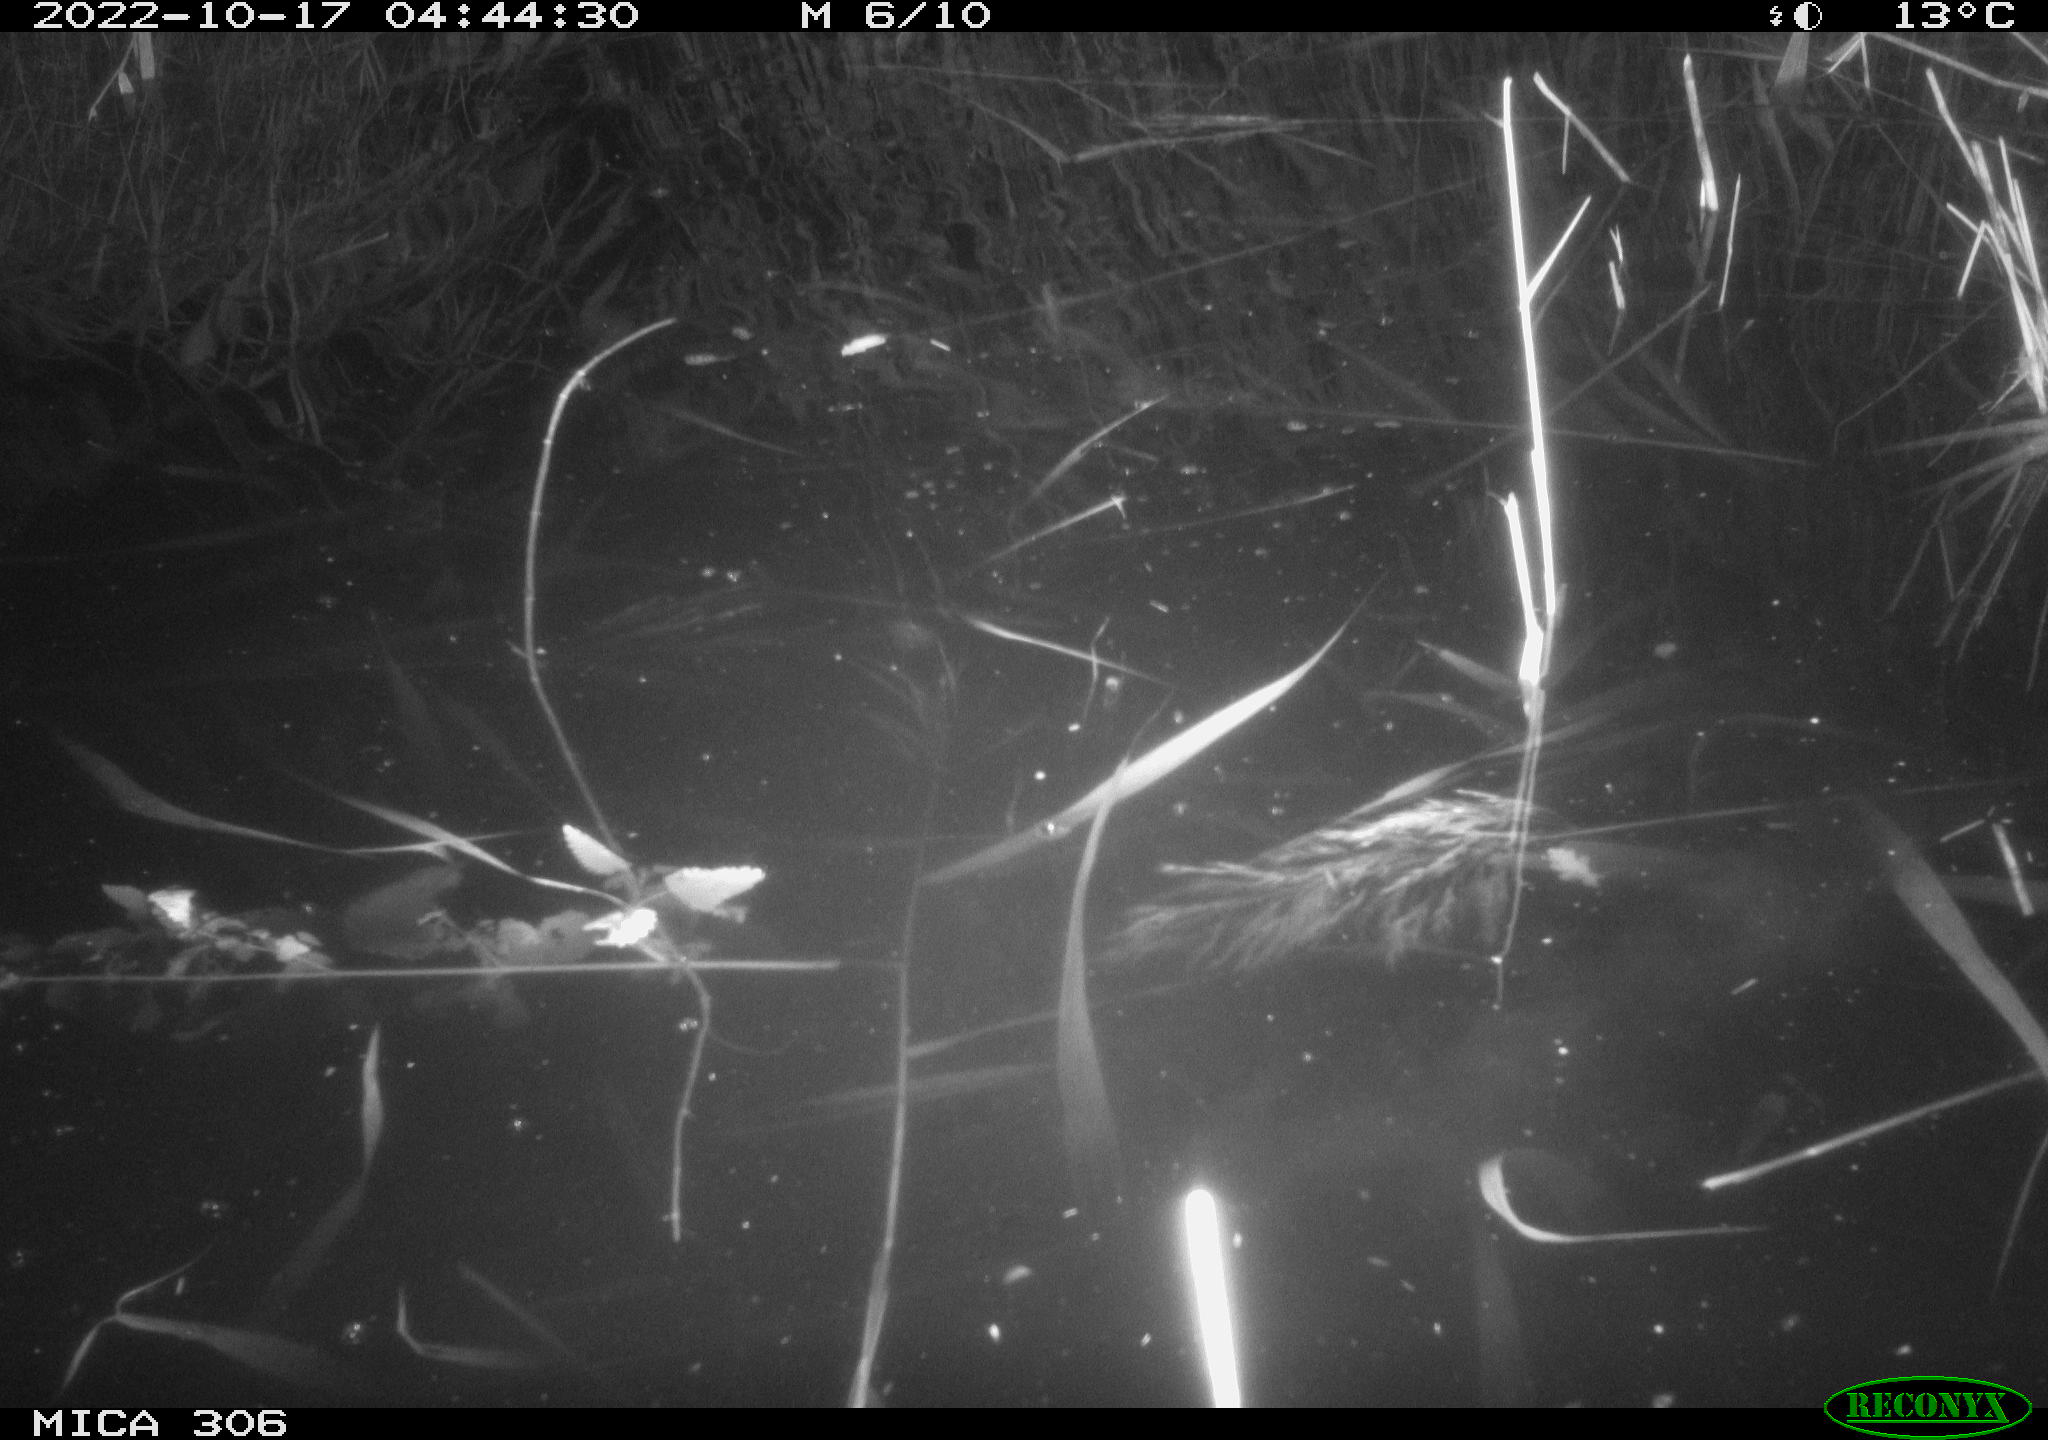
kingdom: Animalia
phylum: Chordata
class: Mammalia
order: Rodentia
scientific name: Rodentia
